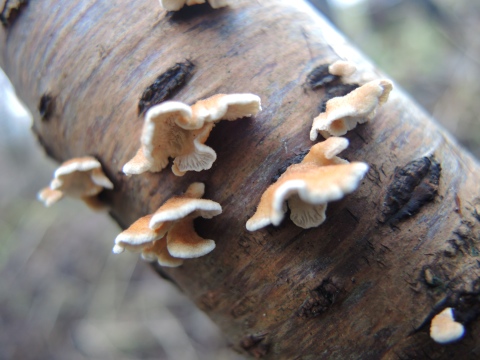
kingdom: Fungi
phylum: Basidiomycota
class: Agaricomycetes
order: Amylocorticiales
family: Amylocorticiaceae
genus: Plicaturopsis
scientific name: Plicaturopsis crispa
